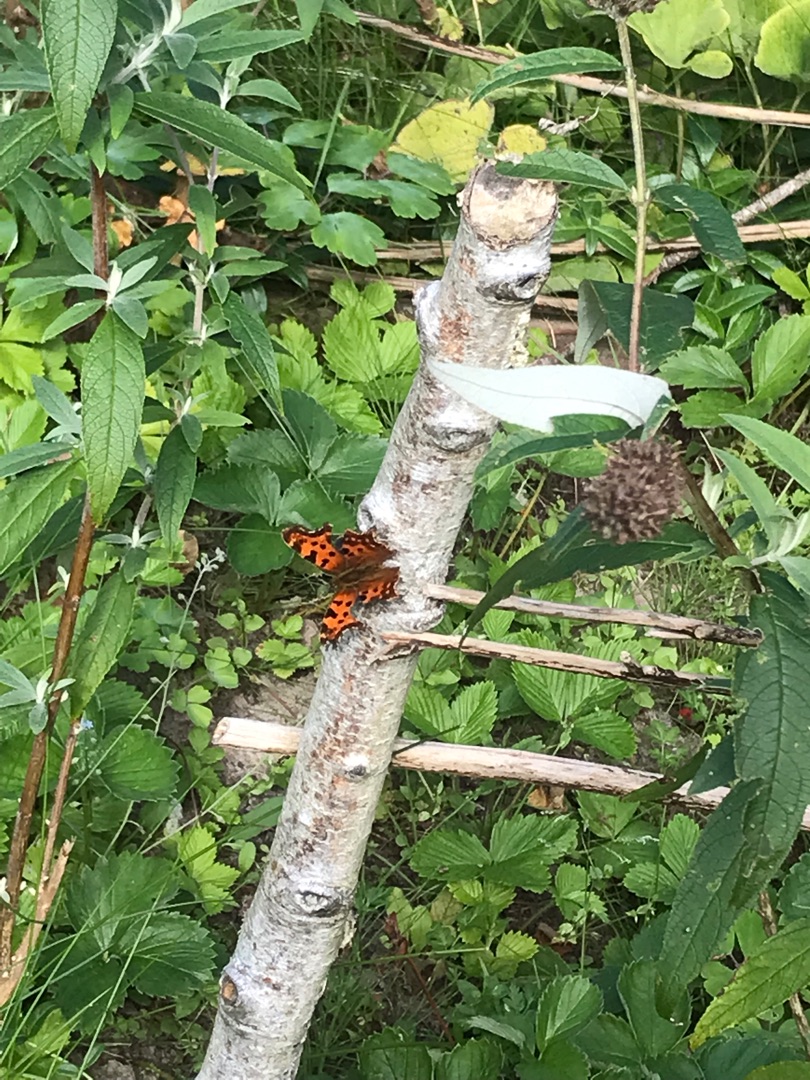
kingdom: Animalia
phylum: Arthropoda
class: Insecta
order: Lepidoptera
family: Nymphalidae
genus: Polygonia
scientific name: Polygonia c-album
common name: Det hvide C
